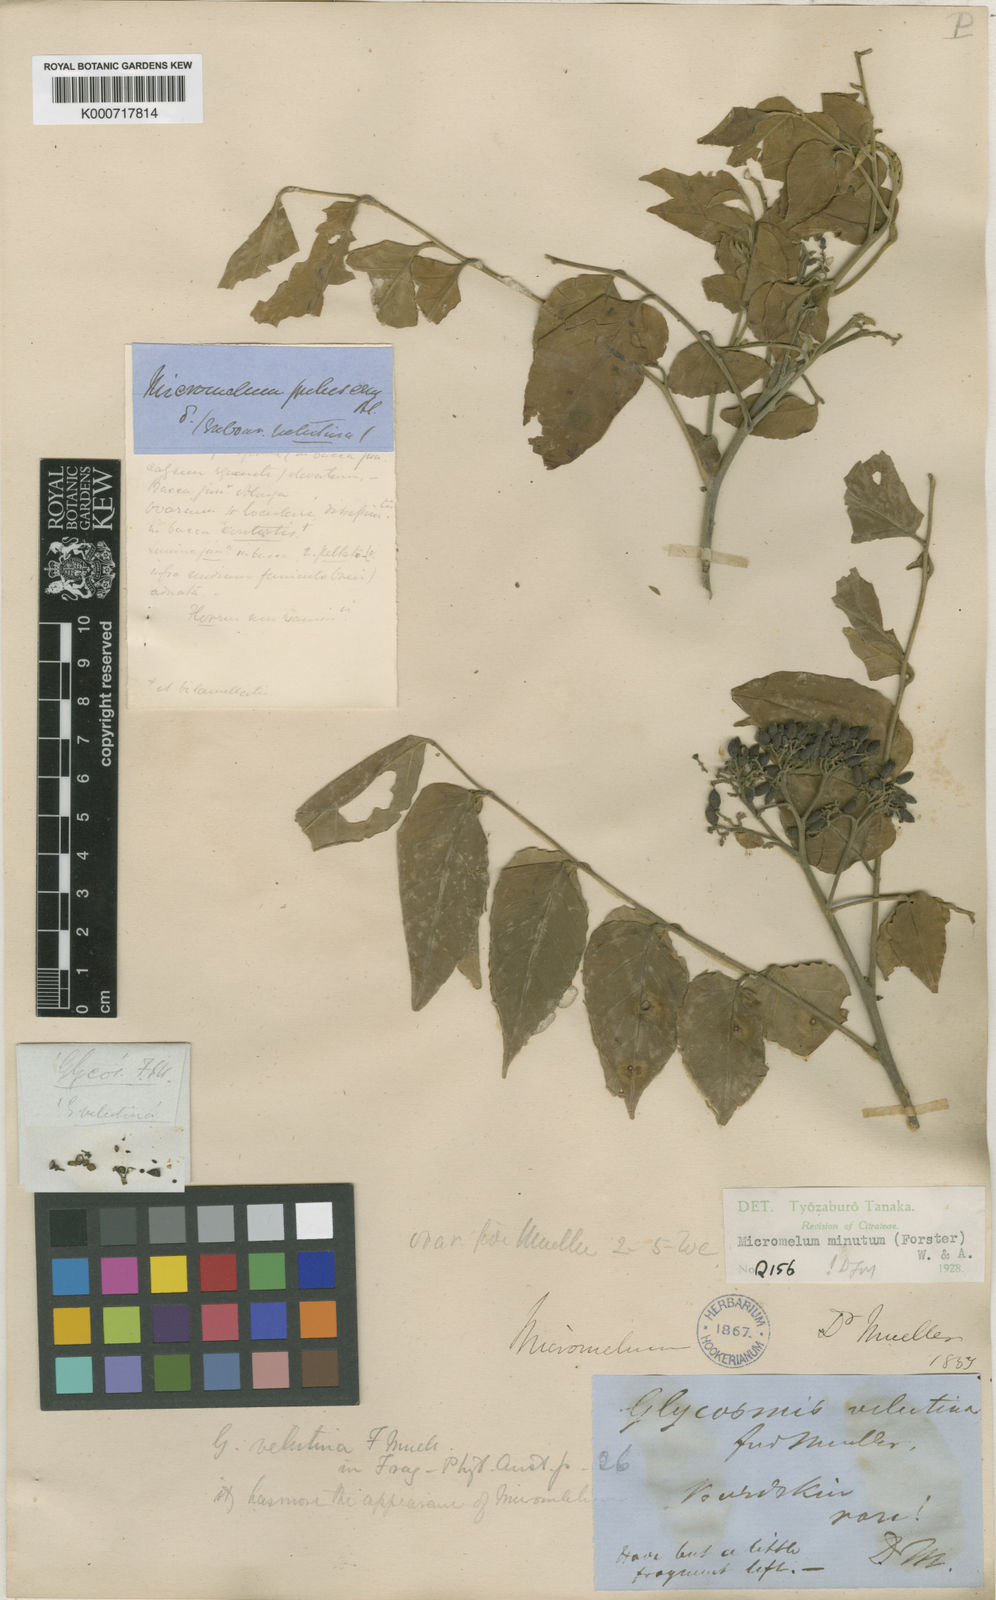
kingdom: Plantae
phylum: Tracheophyta
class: Magnoliopsida
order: Sapindales
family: Rutaceae
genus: Micromelum
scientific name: Micromelum minutum
